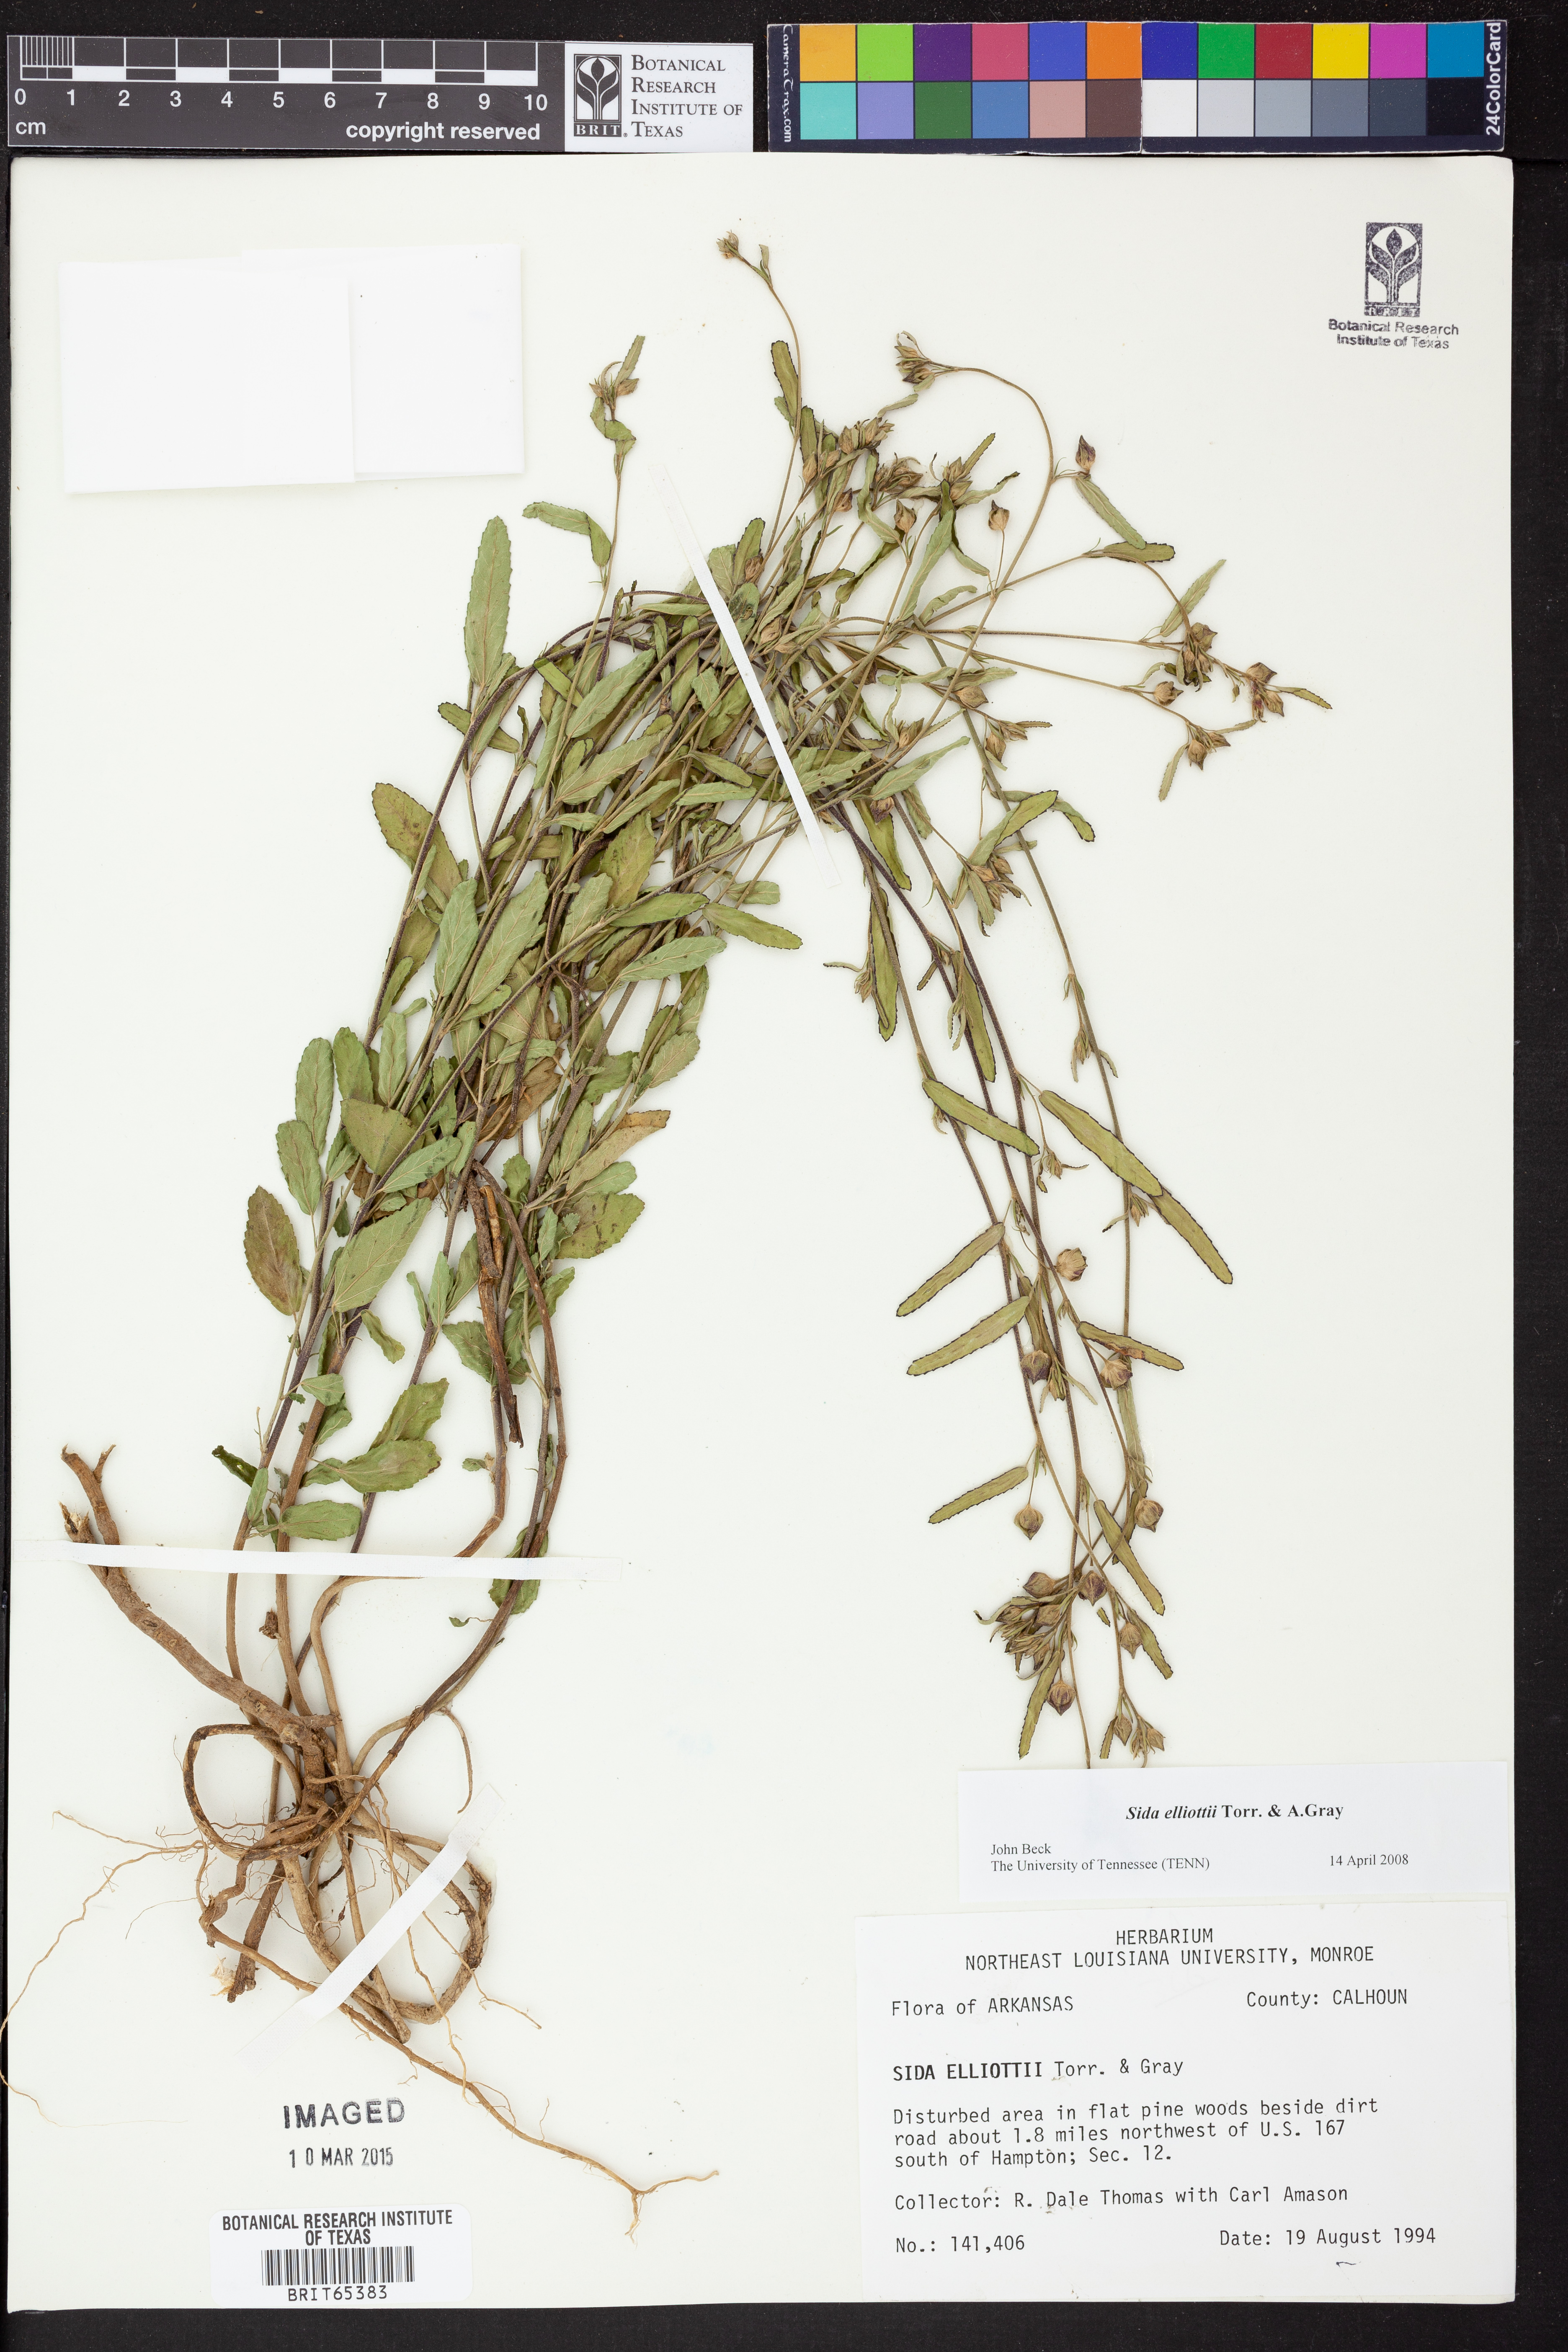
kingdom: Plantae
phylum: Tracheophyta
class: Magnoliopsida
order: Malvales
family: Malvaceae
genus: Sida
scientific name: Sida
